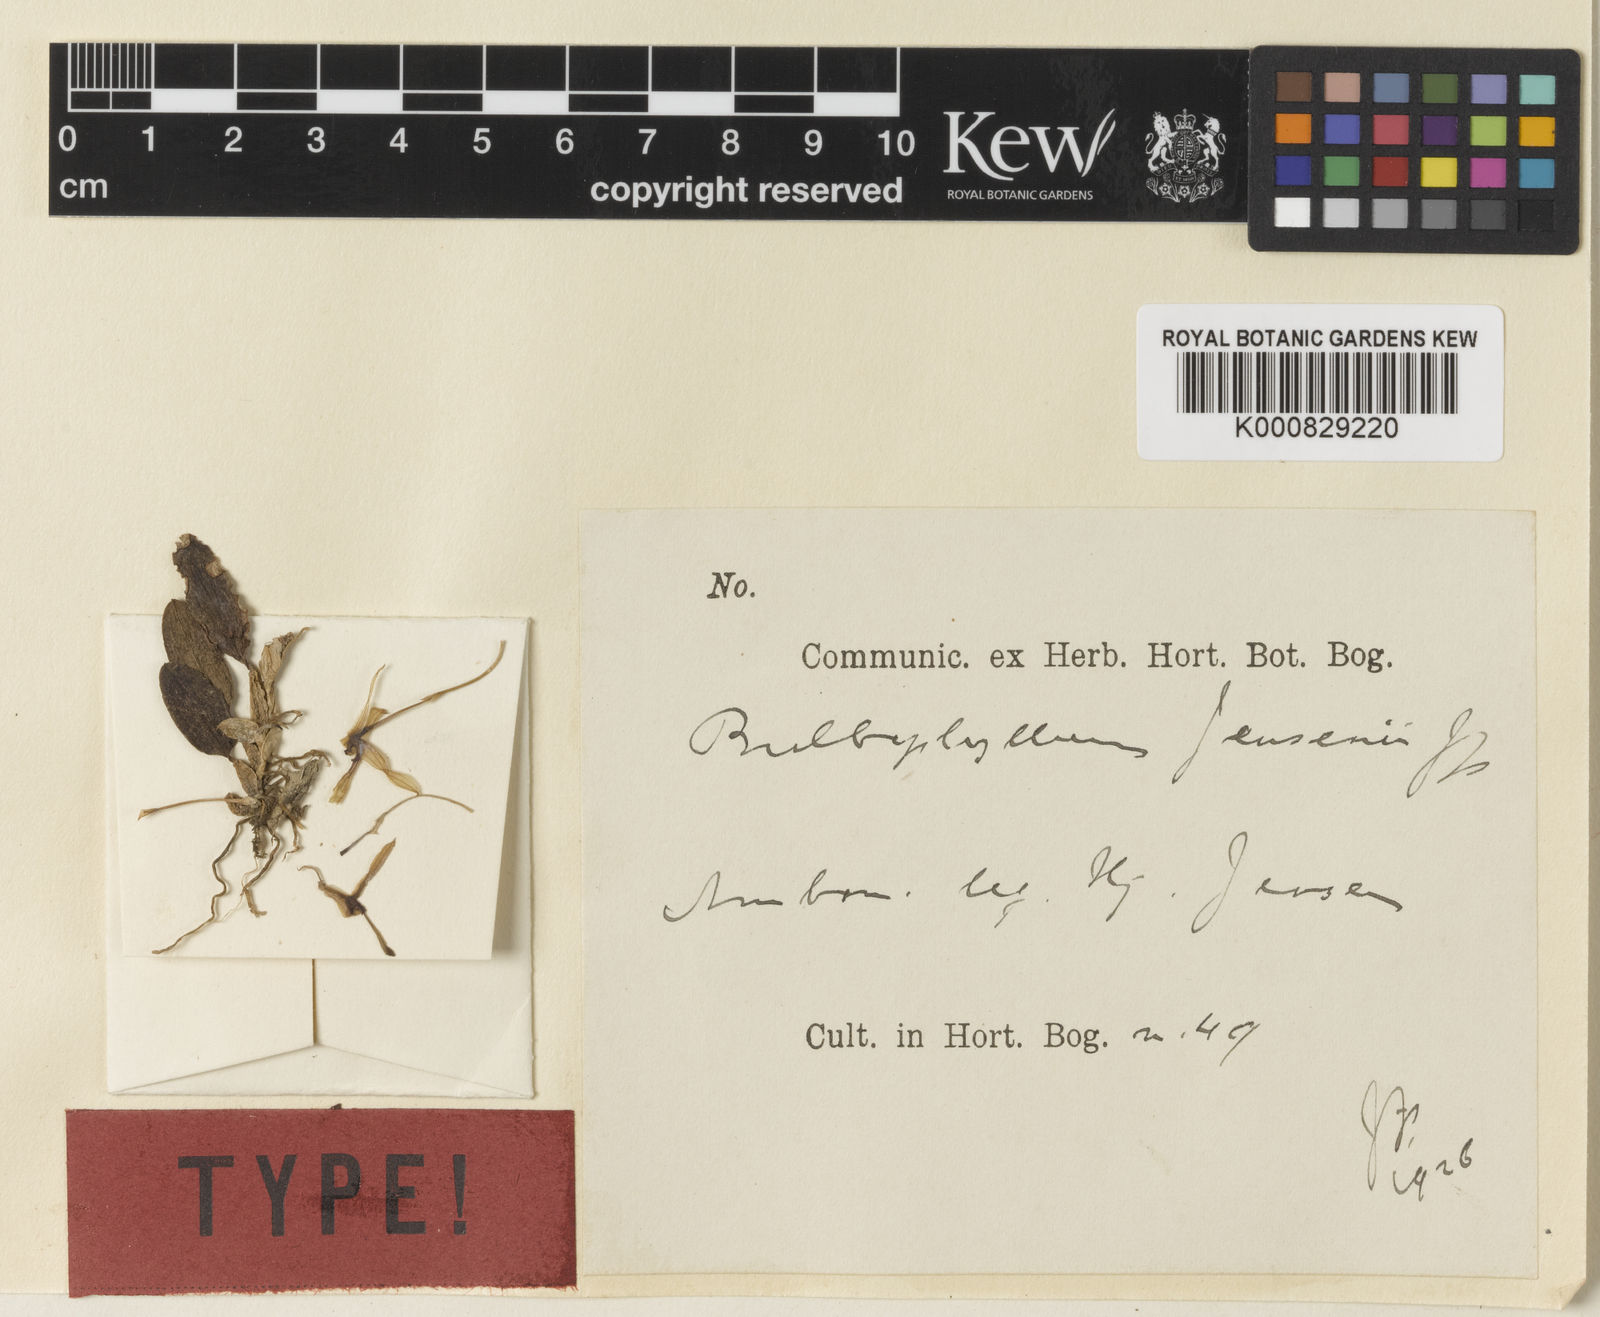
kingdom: Plantae
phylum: Tracheophyta
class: Liliopsida
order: Asparagales
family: Orchidaceae
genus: Bulbophyllum
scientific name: Bulbophyllum alkmaarense
